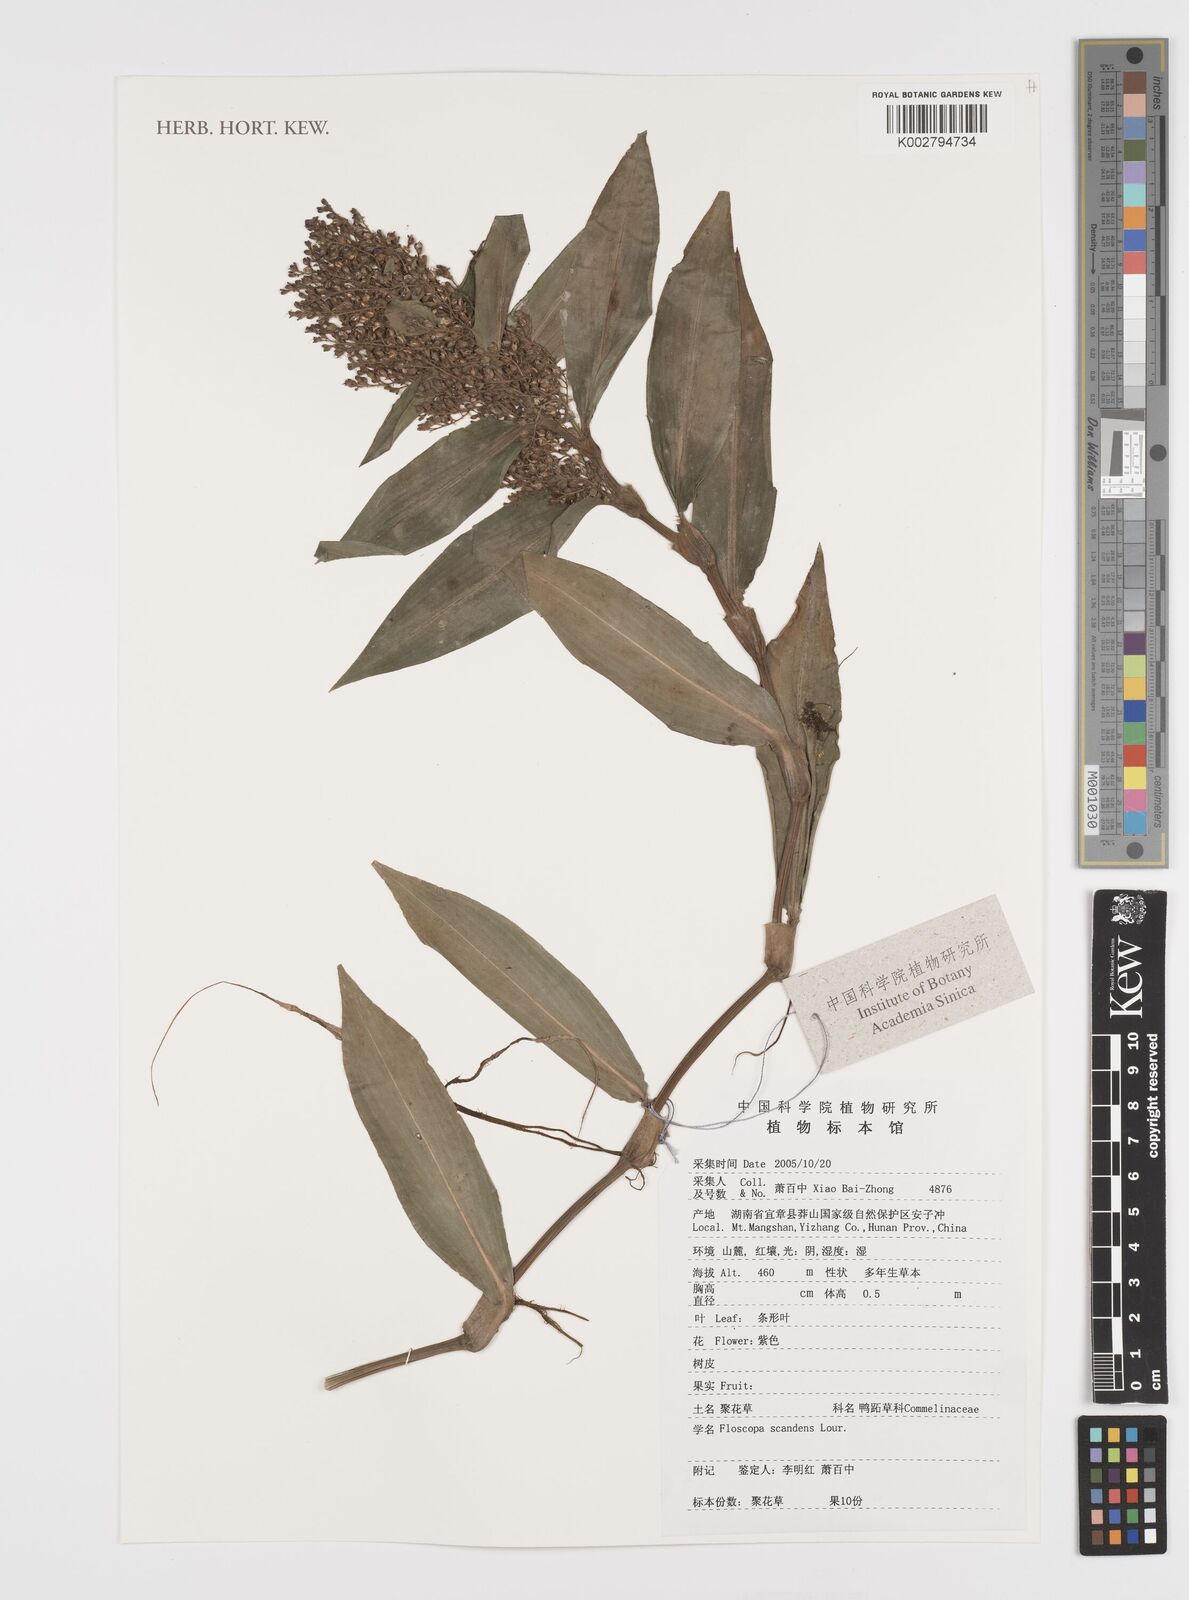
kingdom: Plantae
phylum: Tracheophyta
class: Liliopsida
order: Commelinales
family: Commelinaceae
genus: Floscopa
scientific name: Floscopa scandens
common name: Climbing flower cup
